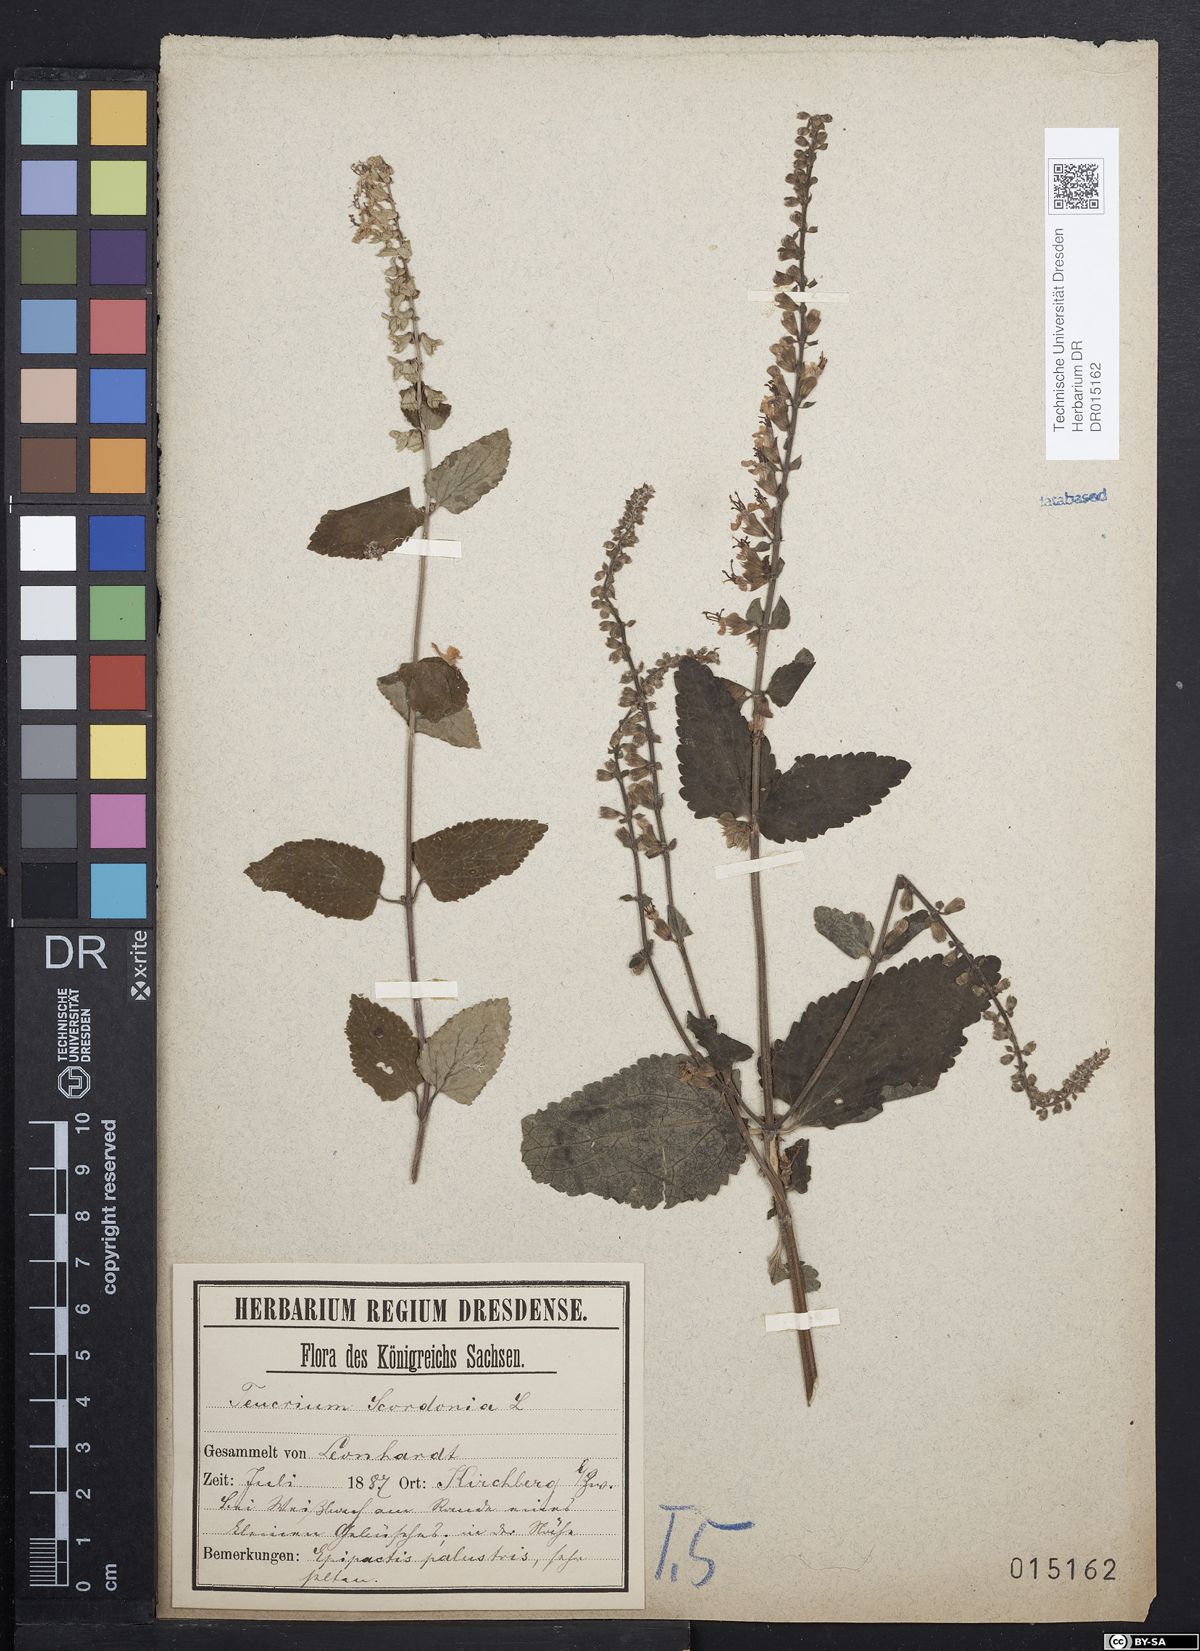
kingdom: Plantae
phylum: Tracheophyta
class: Magnoliopsida
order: Lamiales
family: Lamiaceae
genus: Teucrium
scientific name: Teucrium scorodonia
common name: Woodland germander
